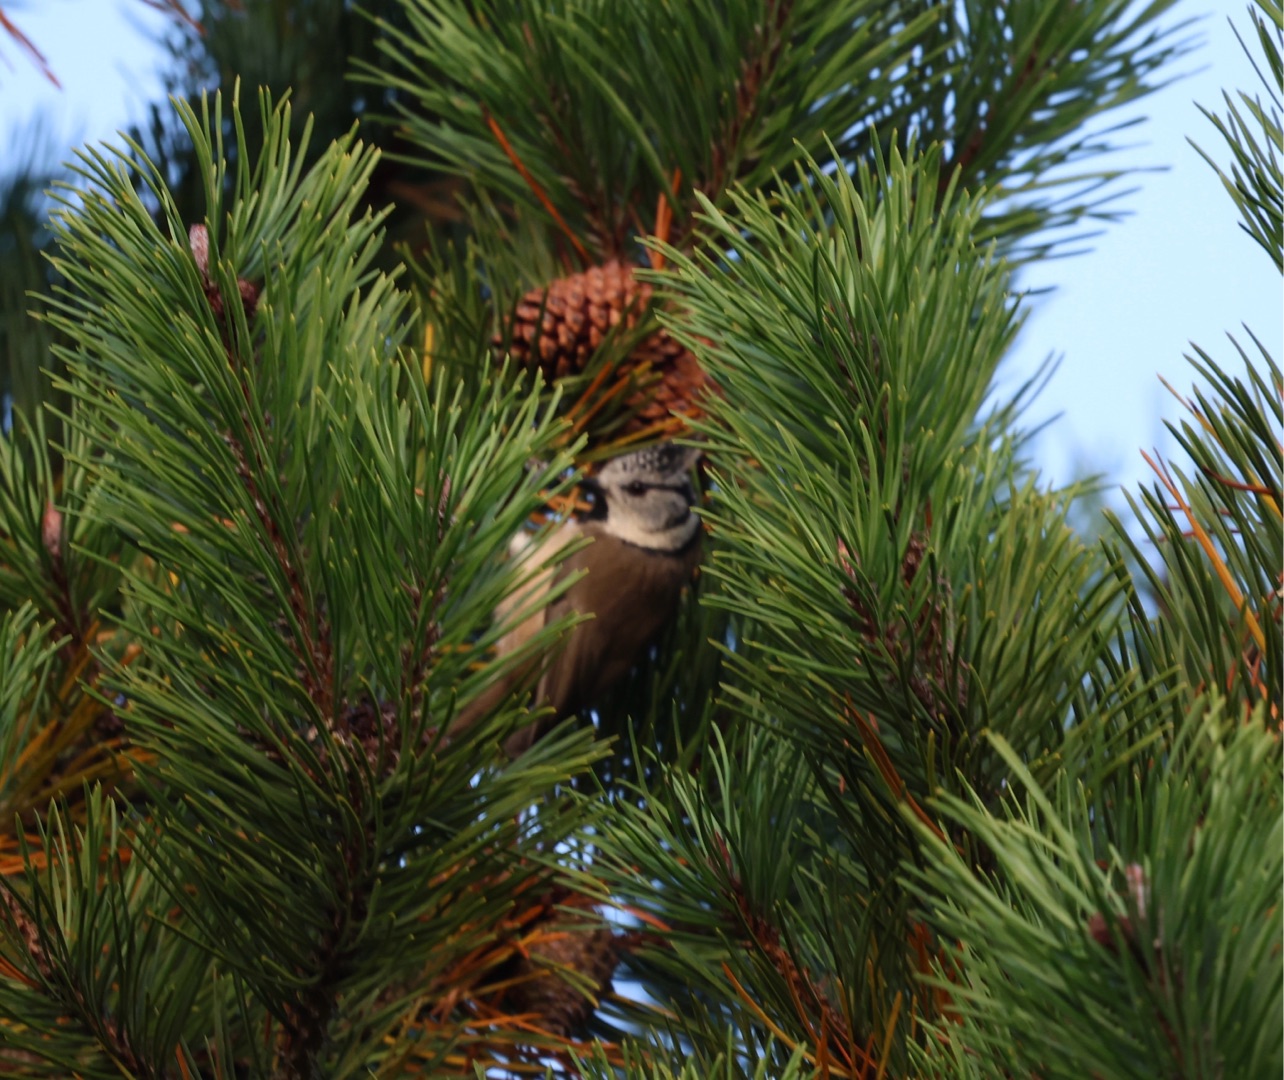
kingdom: Animalia
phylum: Chordata
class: Aves
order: Passeriformes
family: Paridae
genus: Lophophanes
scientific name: Lophophanes cristatus
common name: Topmejse
